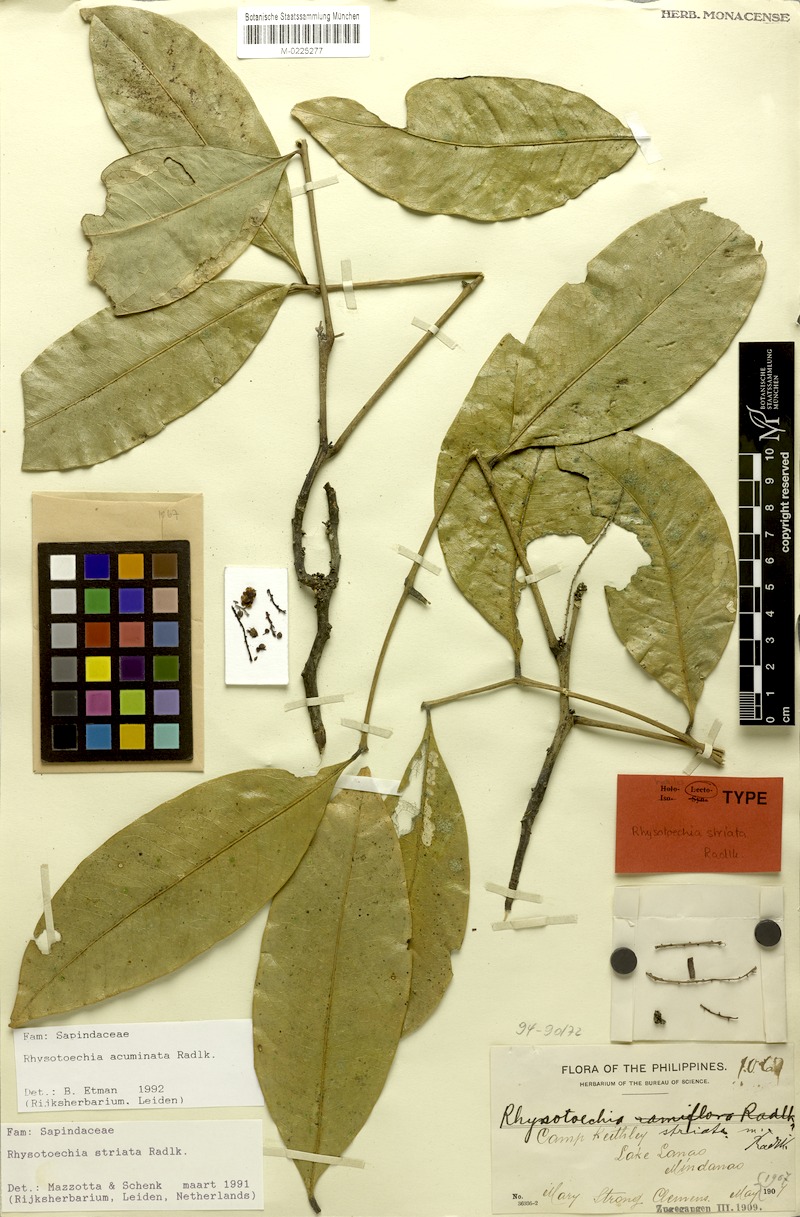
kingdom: Plantae
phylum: Tracheophyta
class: Magnoliopsida
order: Sapindales
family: Sapindaceae
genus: Rhysotoechia
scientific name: Rhysotoechia ramiflora
